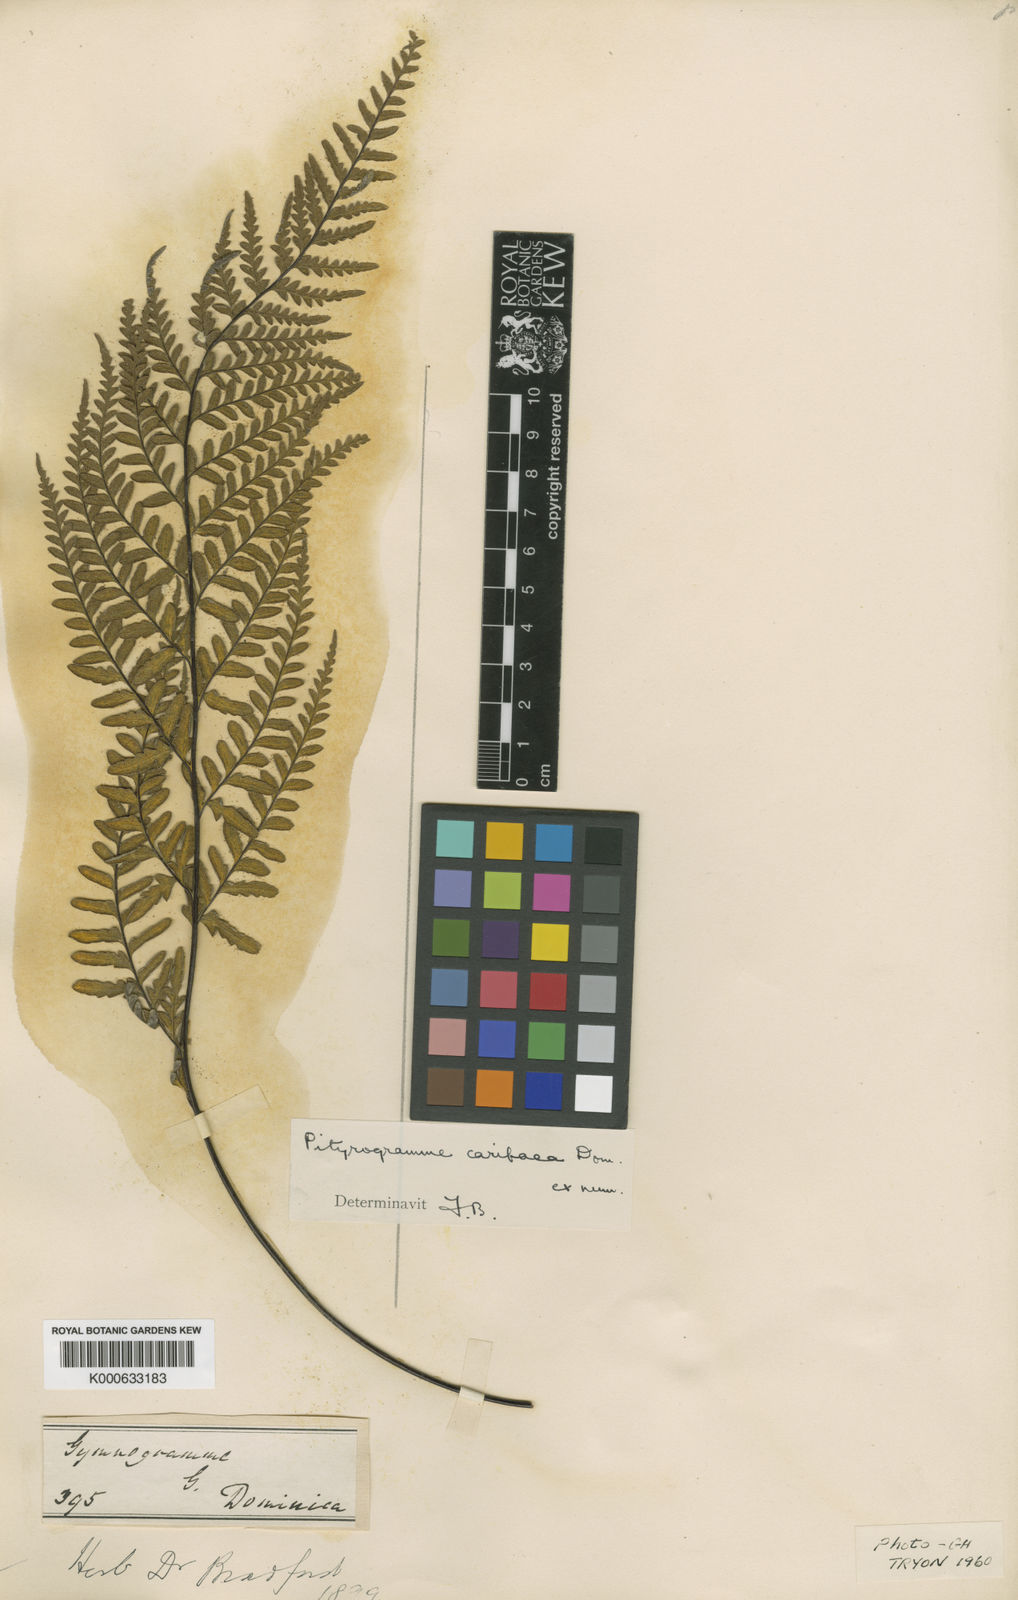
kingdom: Plantae
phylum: Tracheophyta
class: Polypodiopsida
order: Polypodiales
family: Pteridaceae
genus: Pityrogramma
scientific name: Pityrogramma chrysophylla
